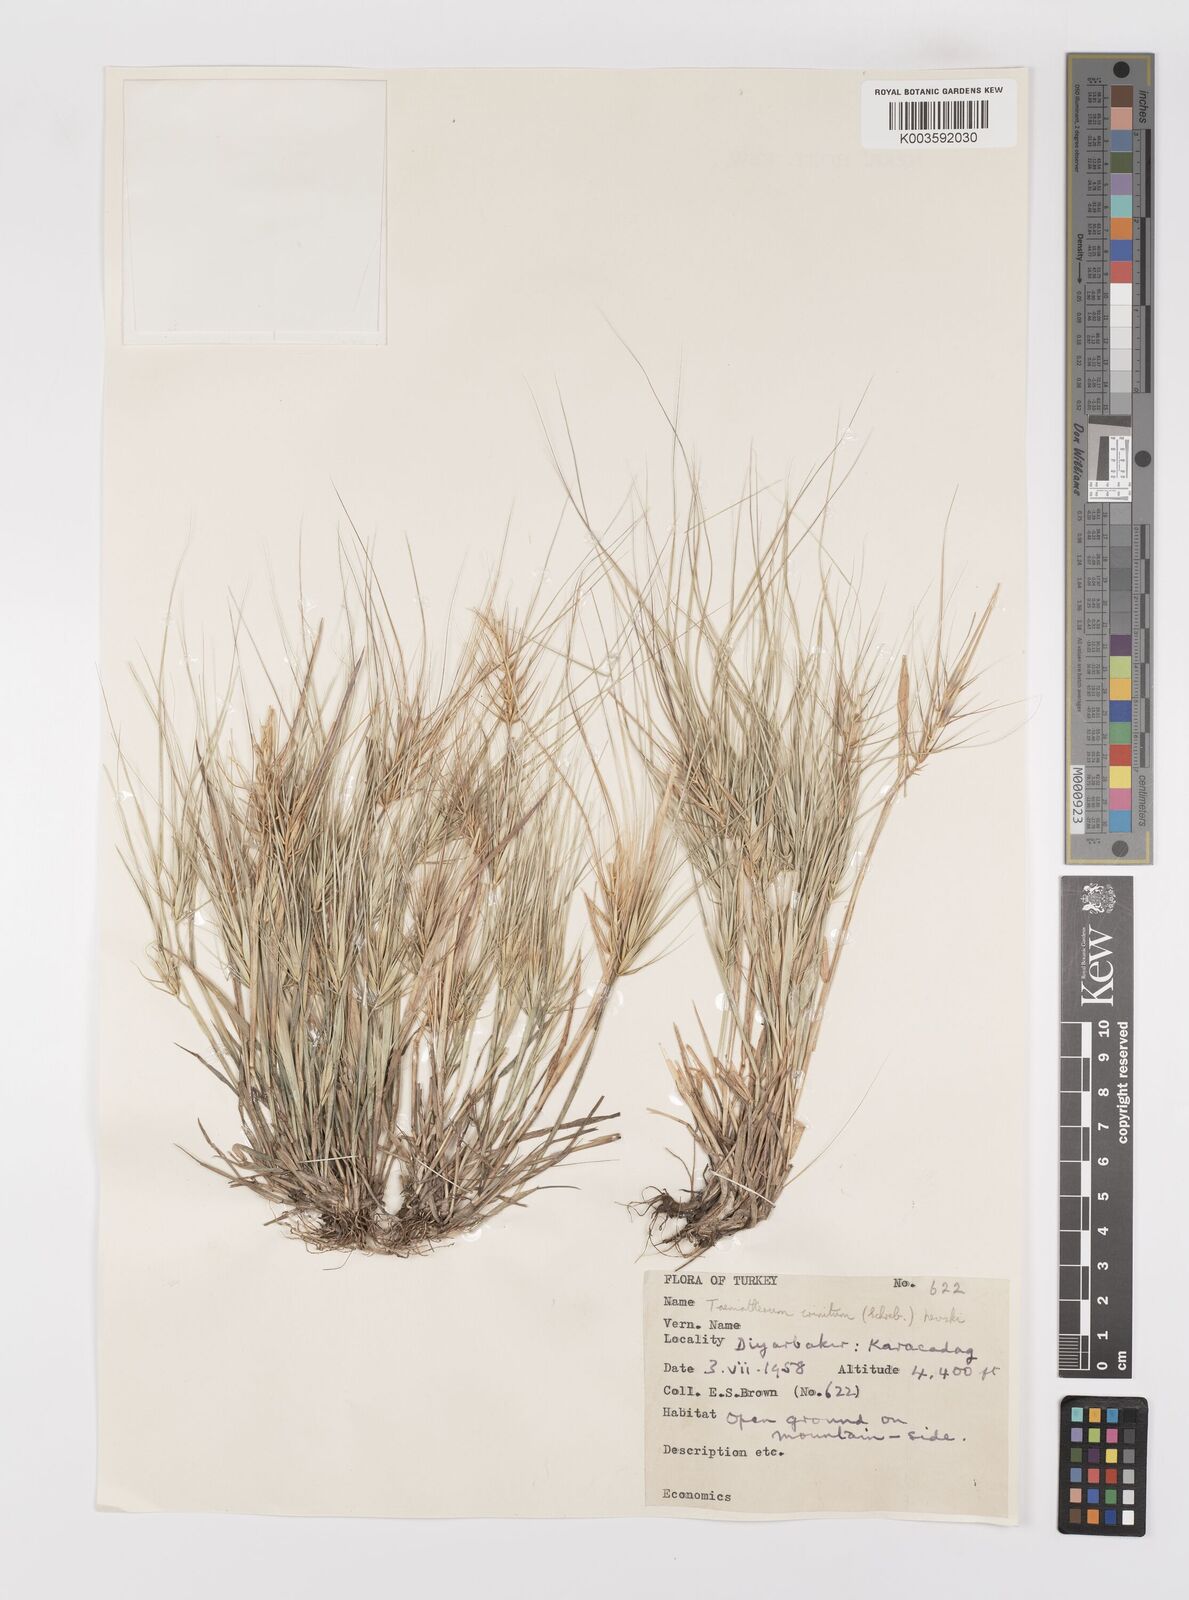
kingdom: Plantae
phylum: Tracheophyta
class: Liliopsida
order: Poales
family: Poaceae
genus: Taeniatherum
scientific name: Taeniatherum caput-medusae
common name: Medusahead
